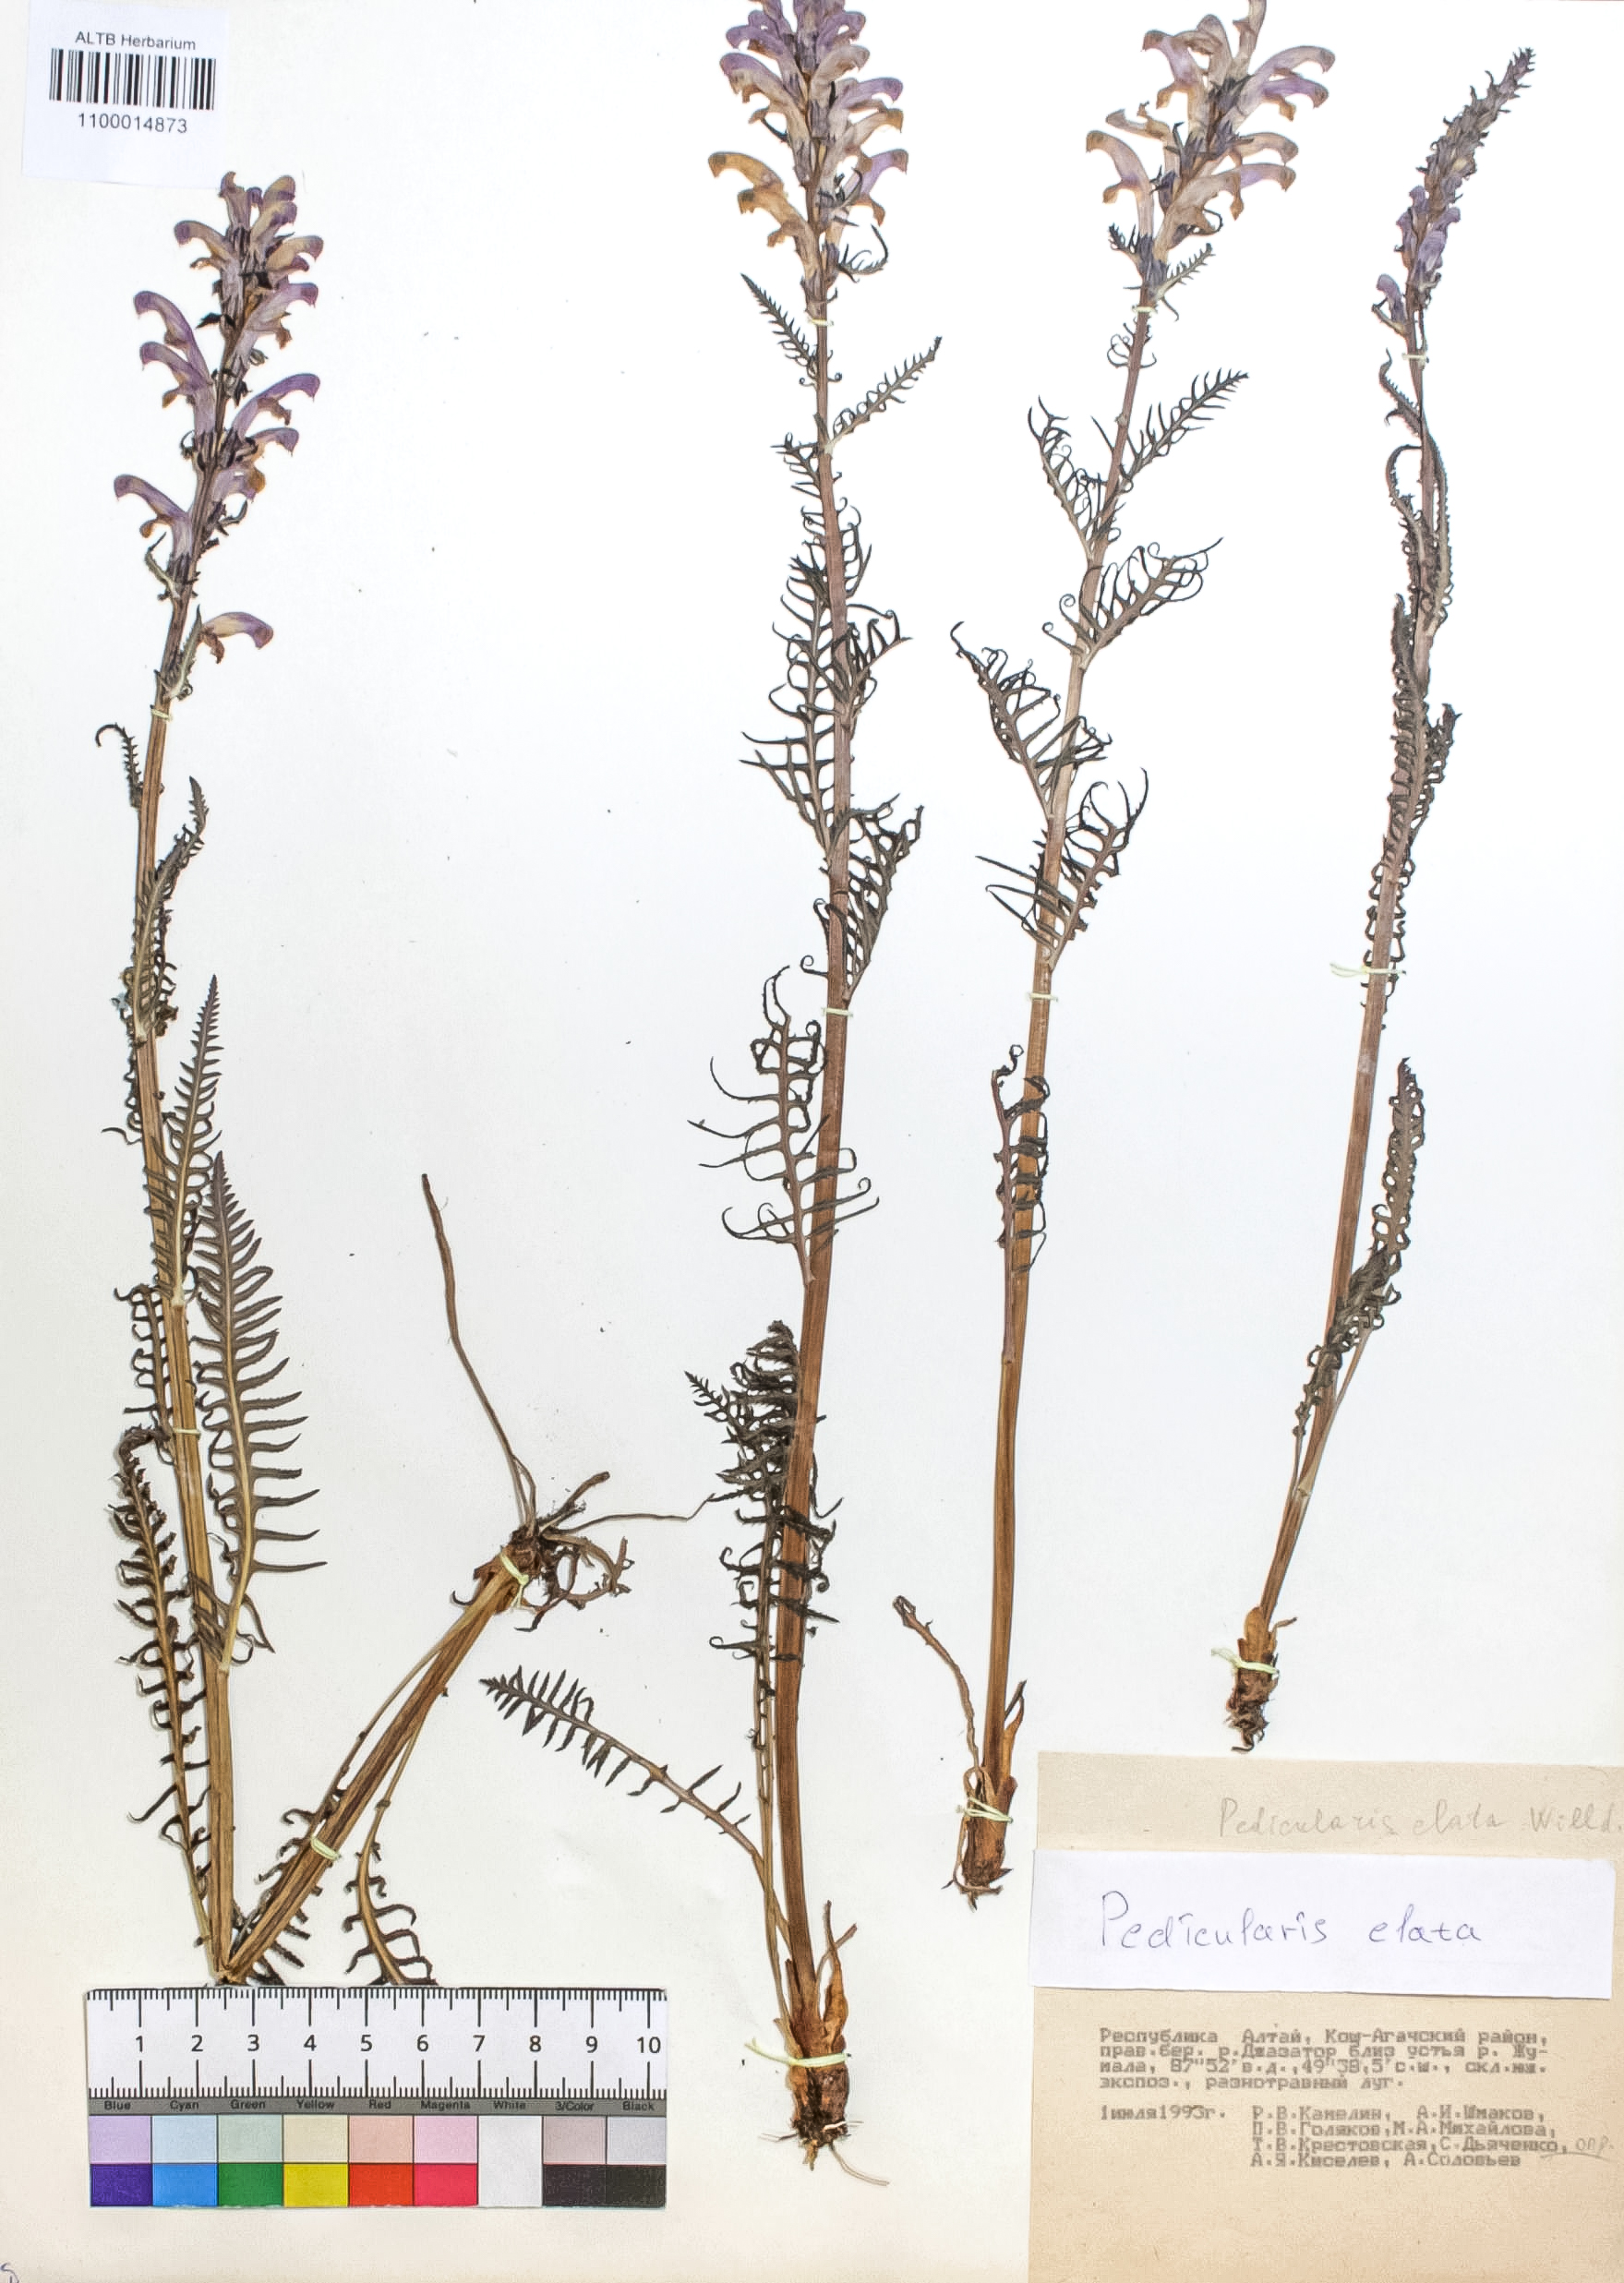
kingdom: Plantae
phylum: Tracheophyta
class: Magnoliopsida
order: Lamiales
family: Orobanchaceae
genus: Pedicularis
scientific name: Pedicularis elata
